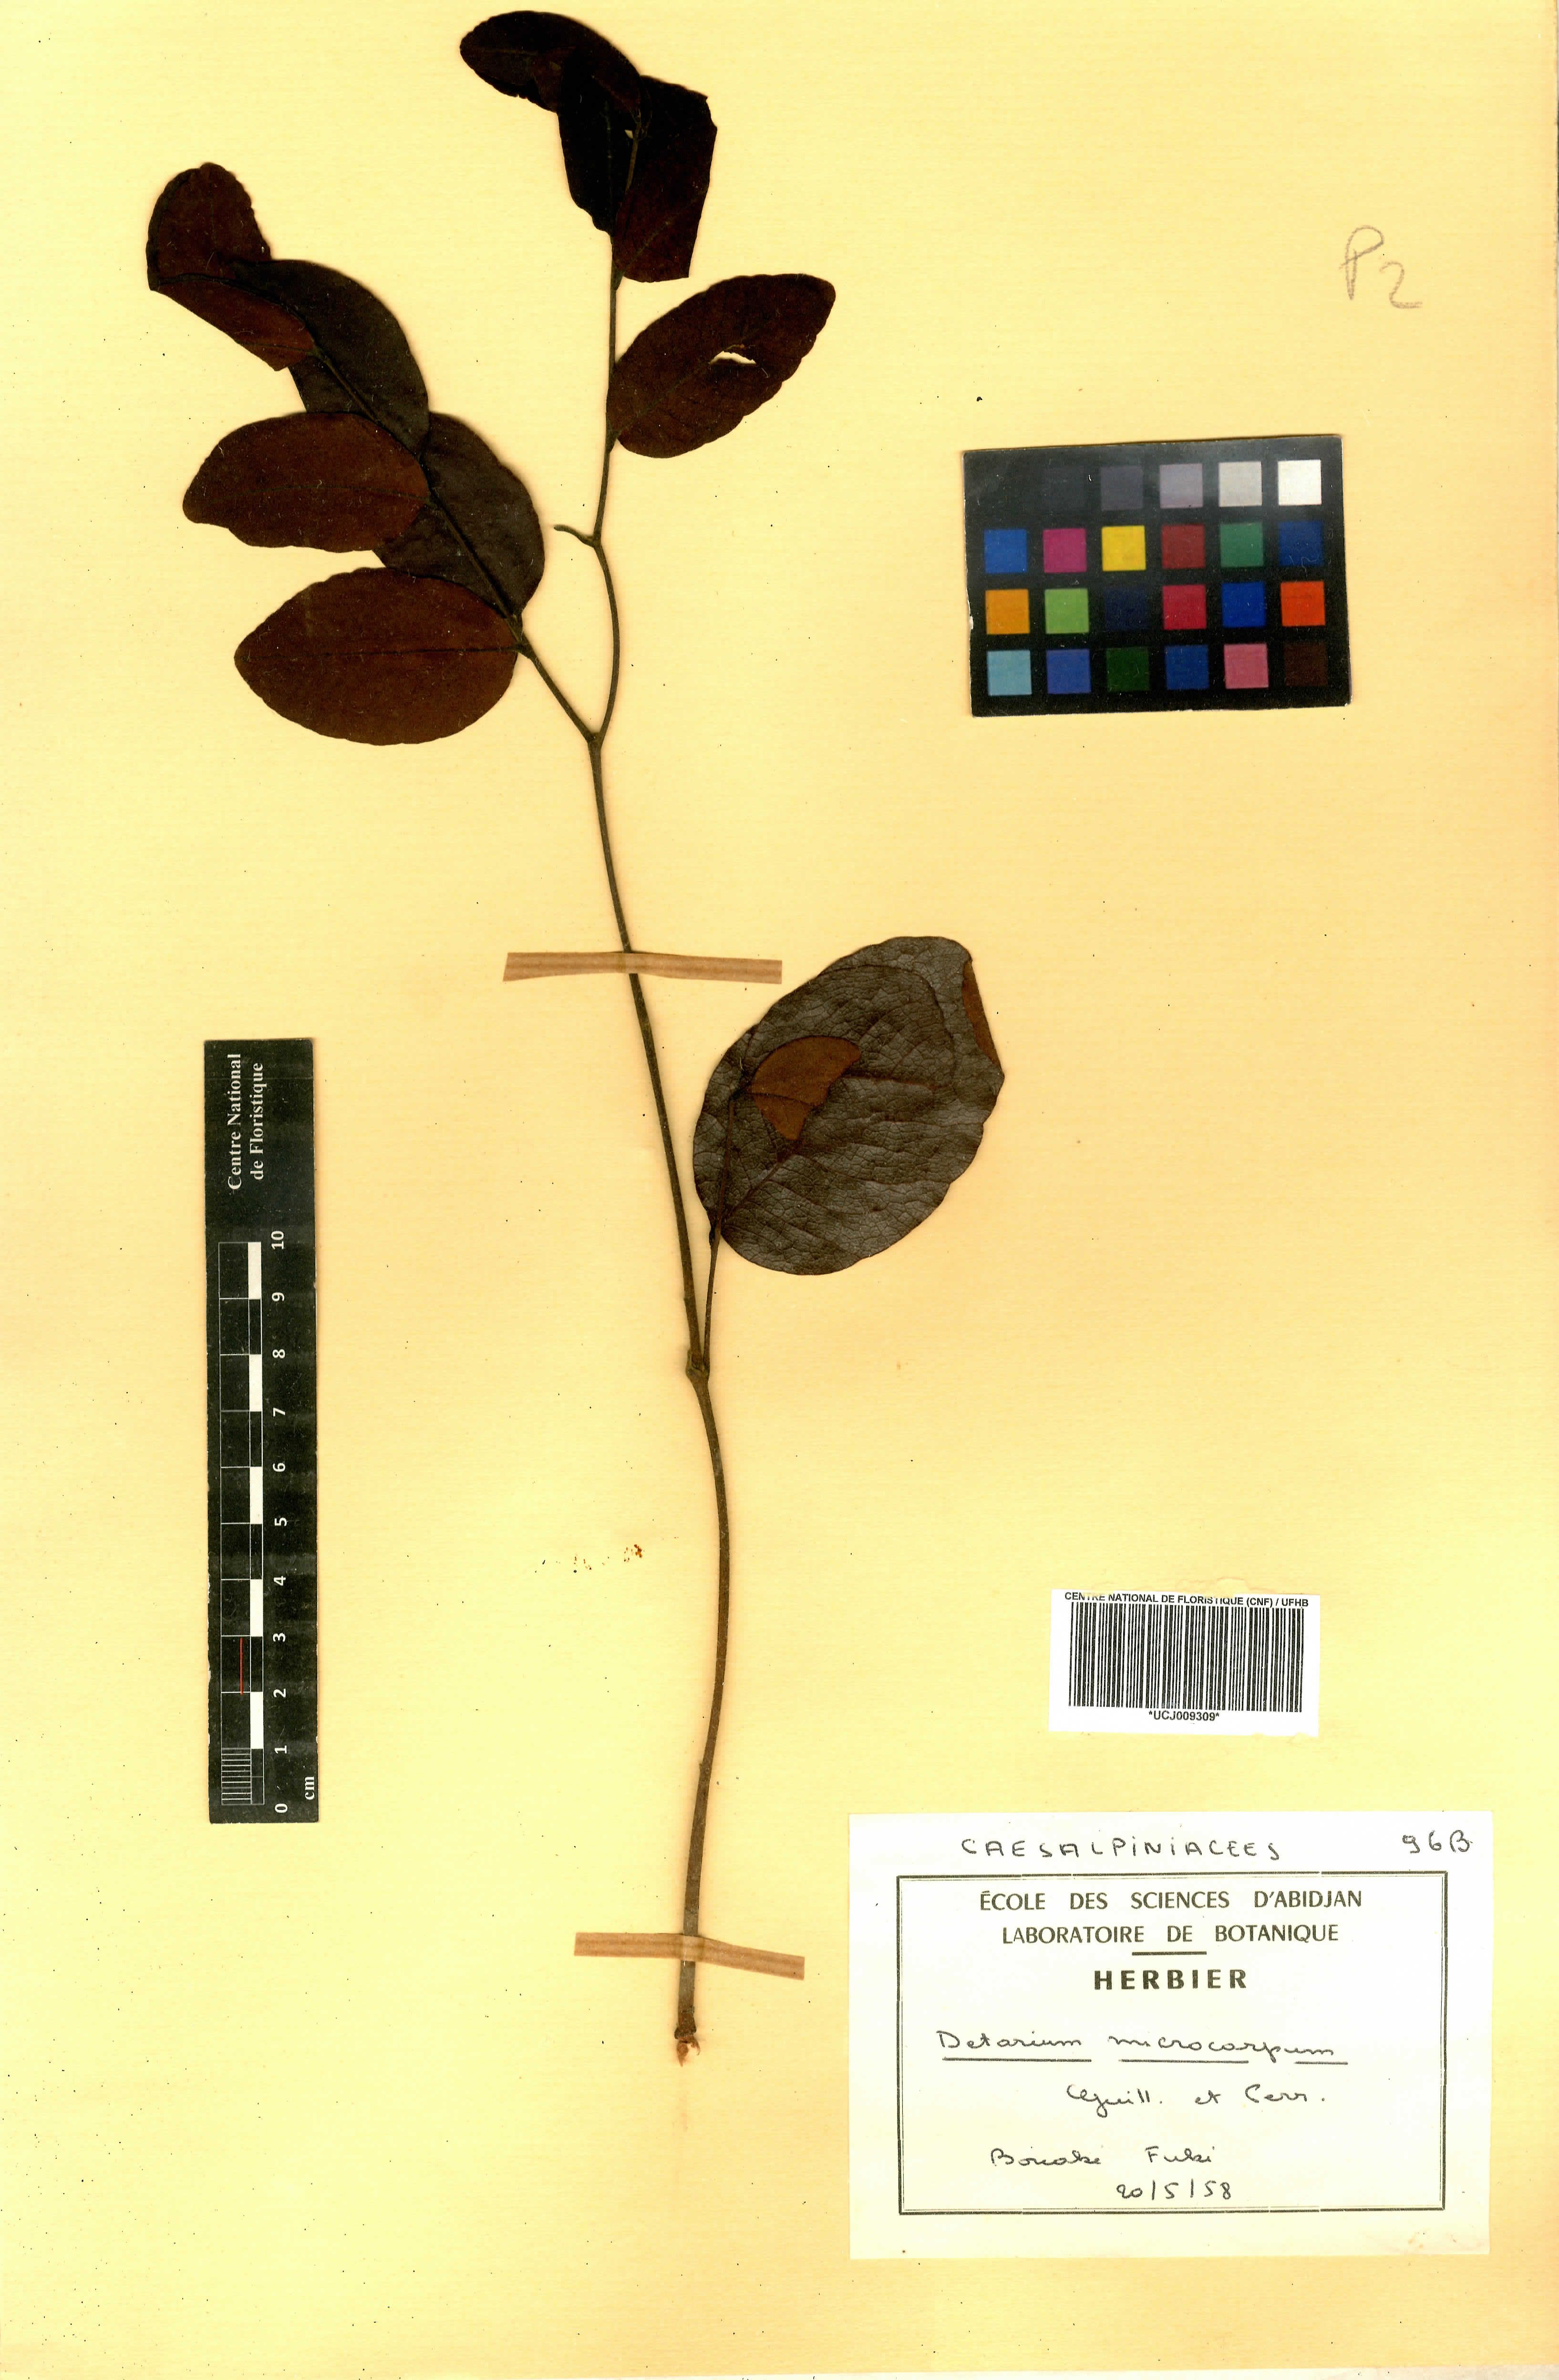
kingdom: Plantae
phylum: Tracheophyta
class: Magnoliopsida
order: Fabales
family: Fabaceae
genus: Detarium
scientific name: Detarium microcarpum
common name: Sweet dattock
